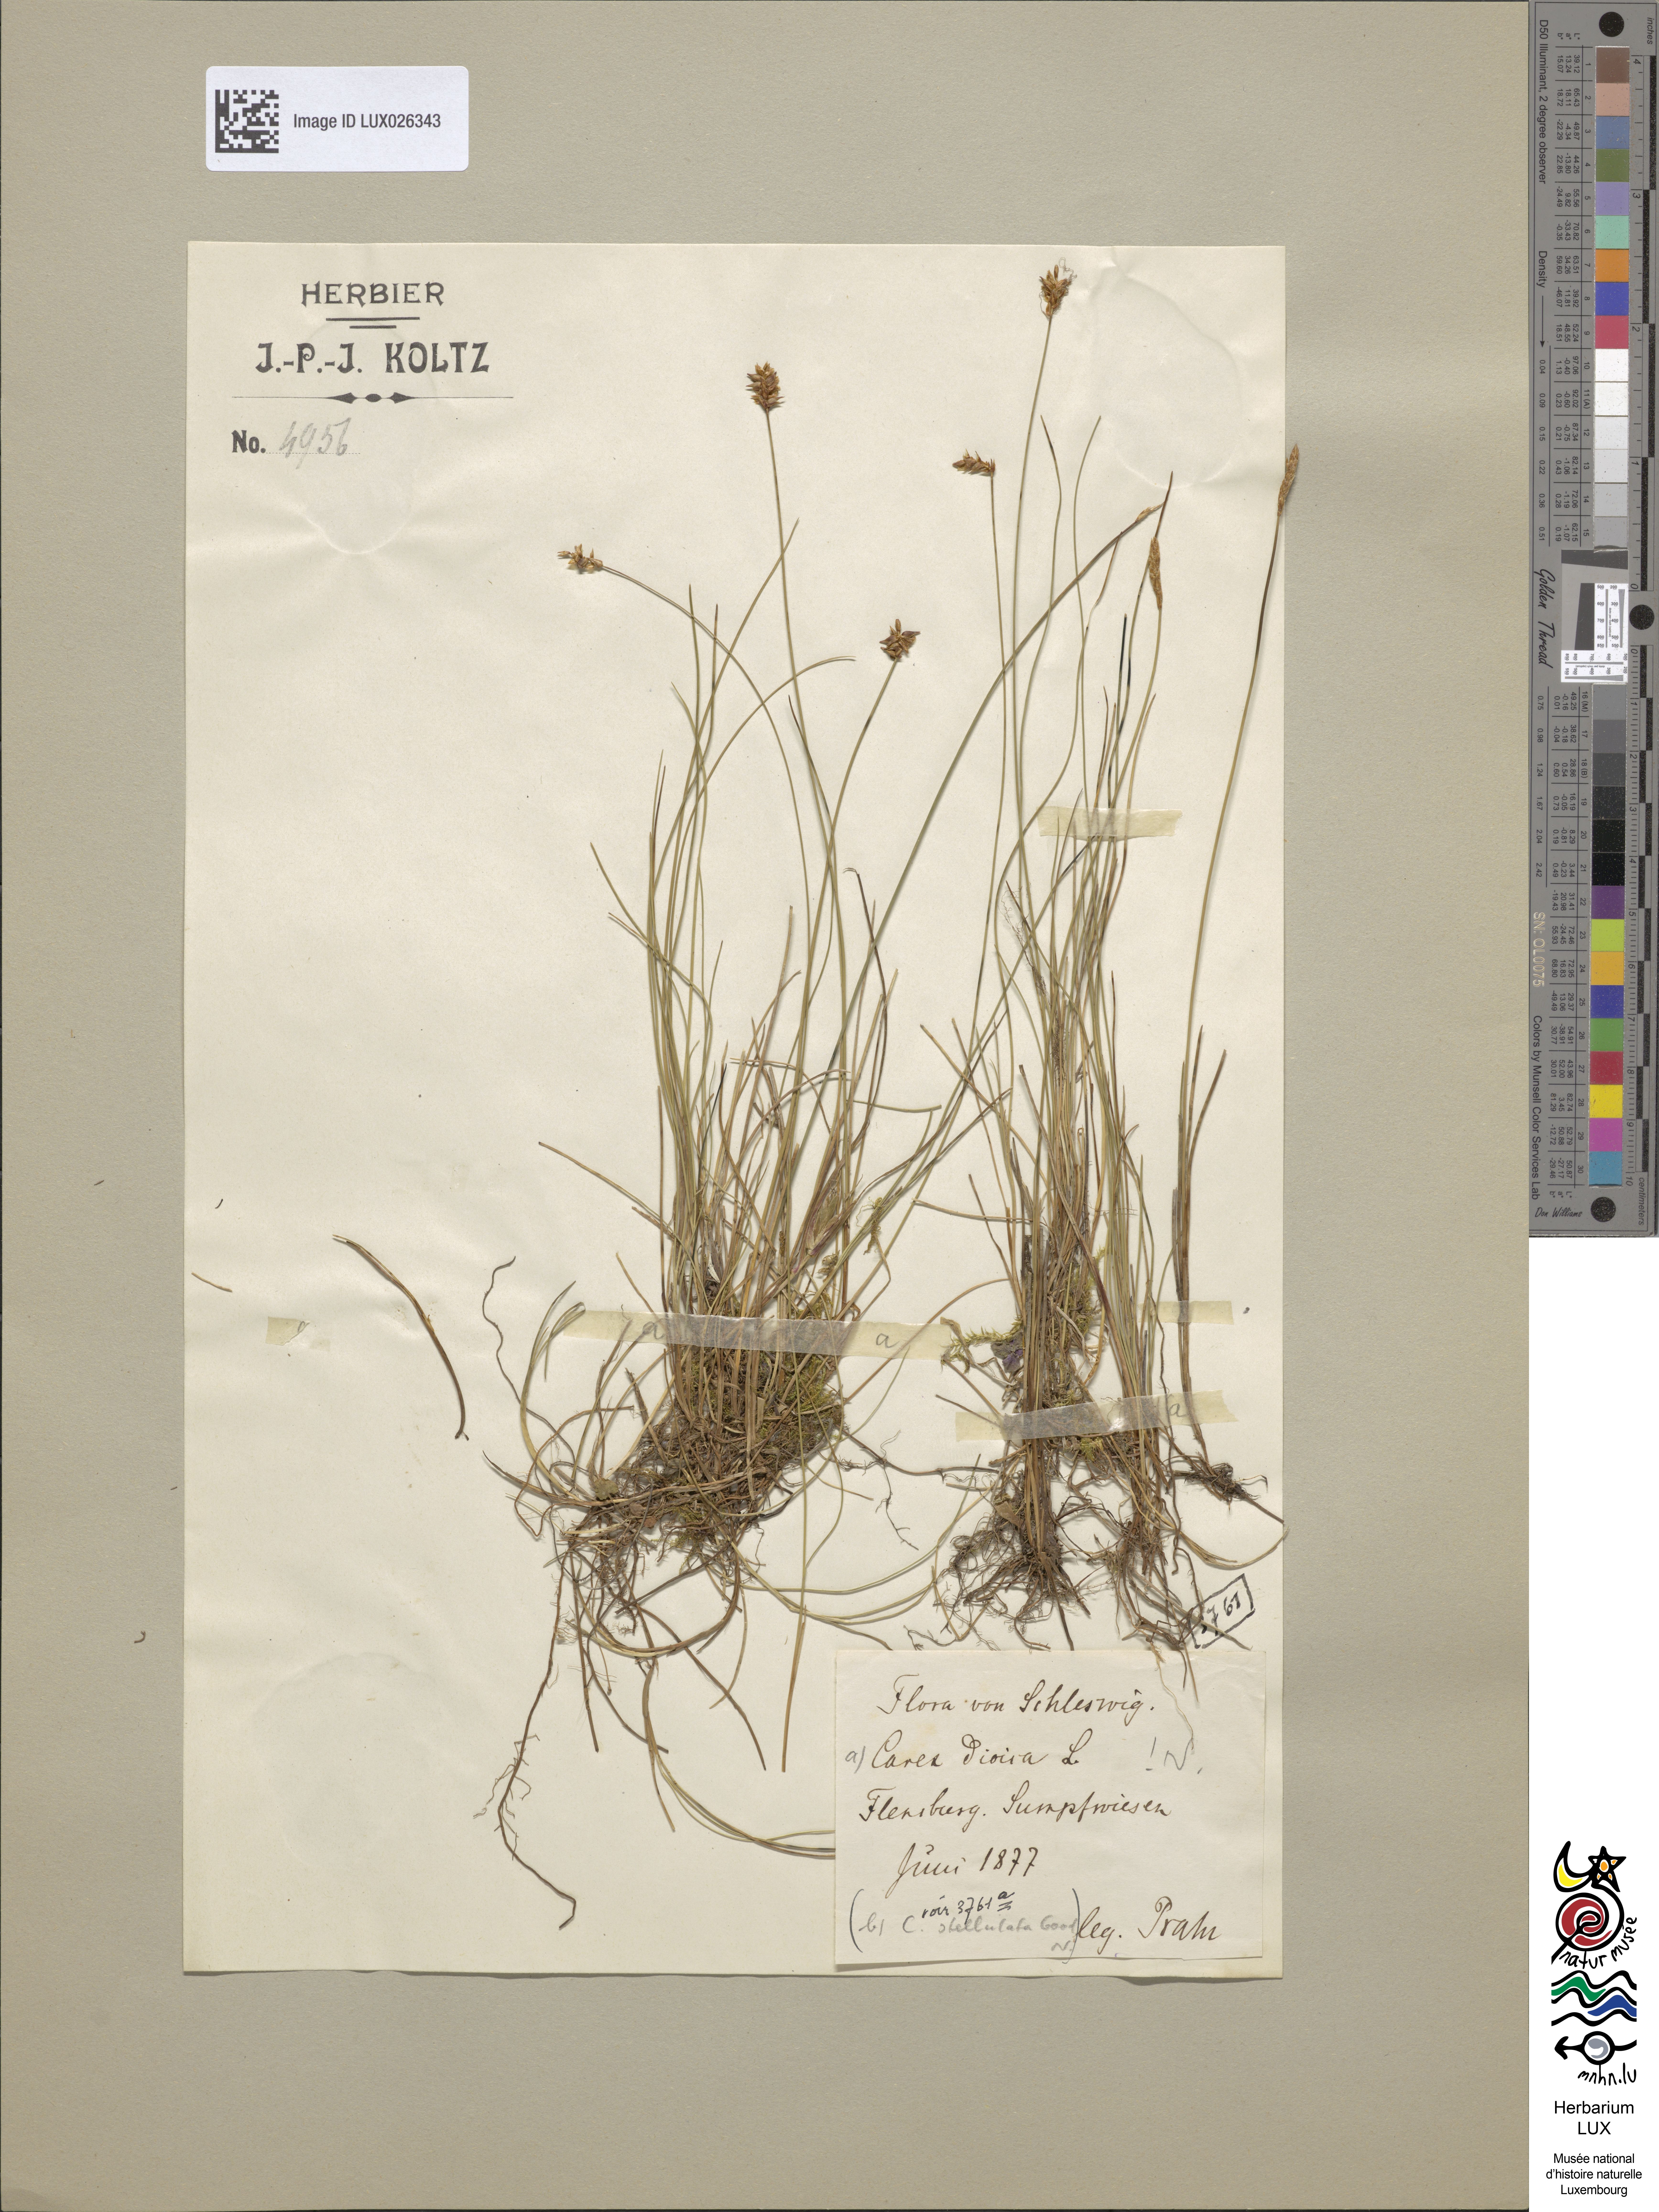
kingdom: Plantae
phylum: Tracheophyta
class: Liliopsida
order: Poales
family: Cyperaceae
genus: Carex
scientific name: Carex dioica
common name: Dioecious sedge
